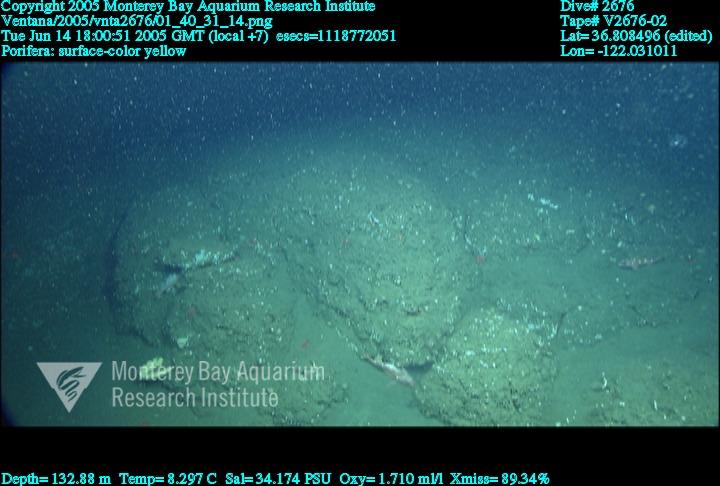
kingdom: Animalia
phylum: Porifera
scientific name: Porifera
